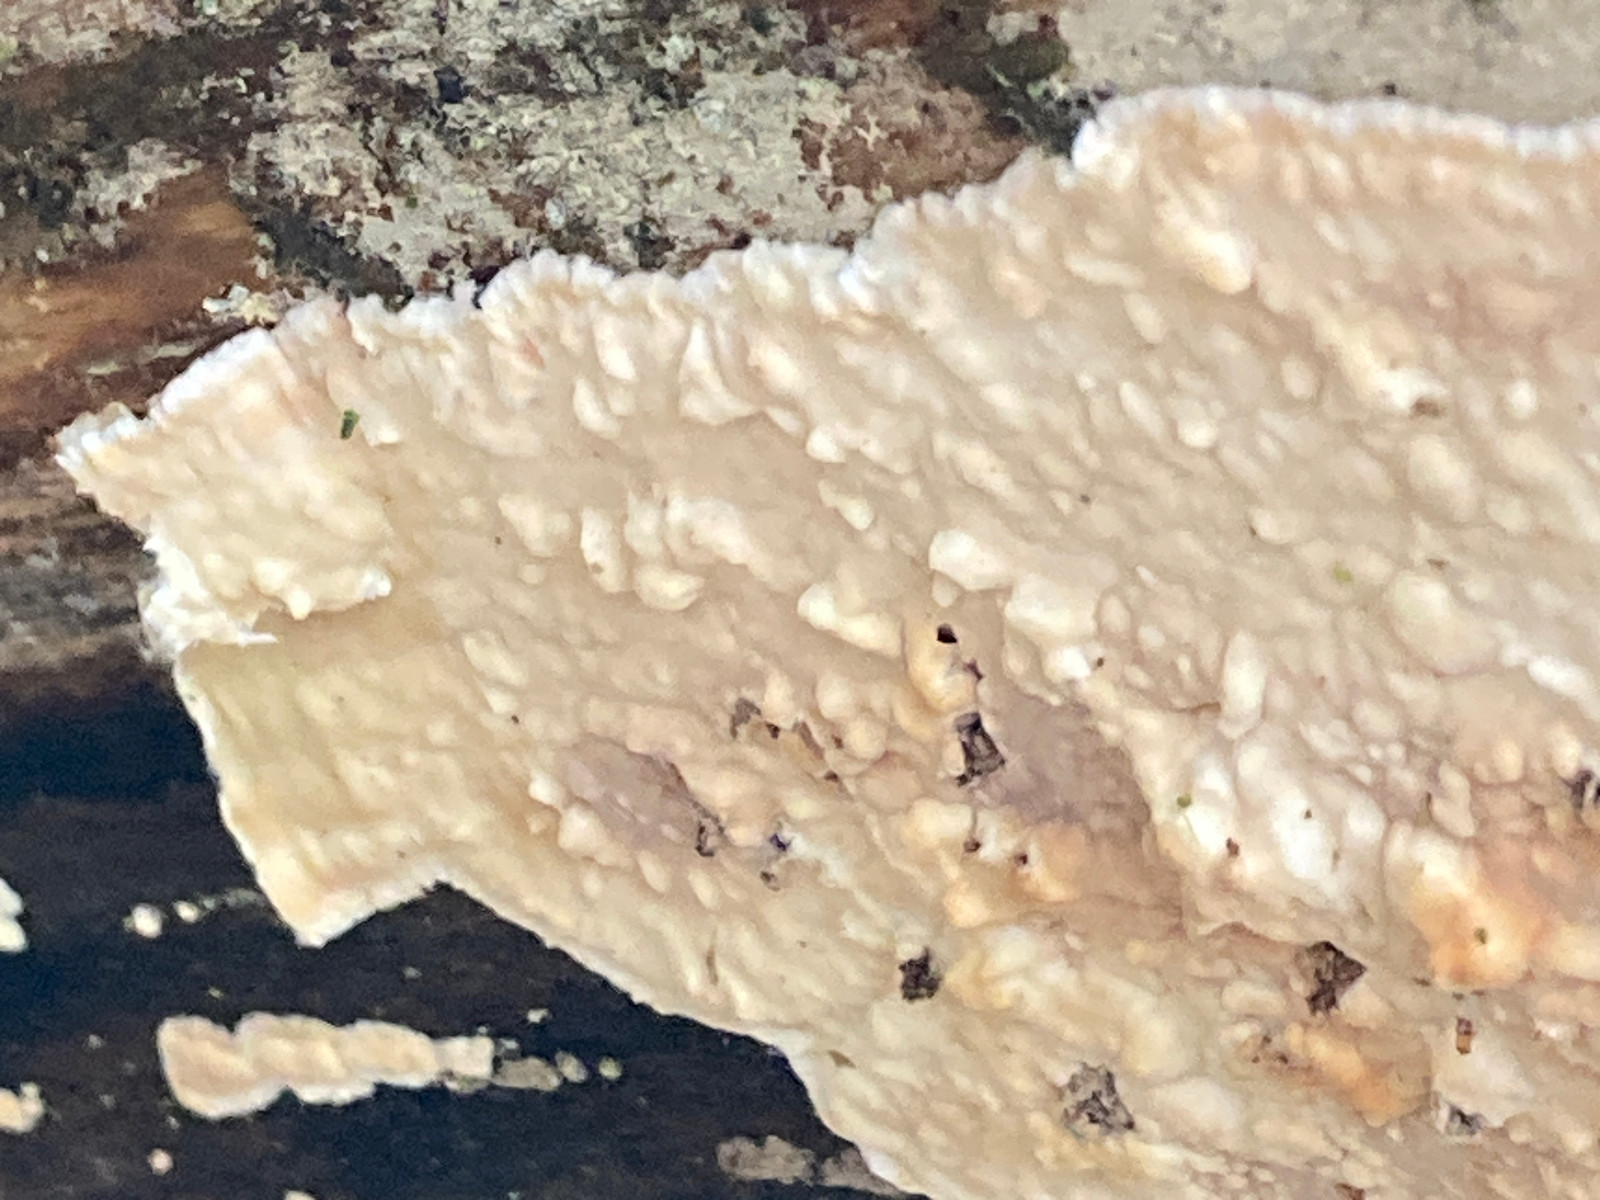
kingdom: Fungi
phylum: Basidiomycota
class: Agaricomycetes
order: Polyporales
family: Dacryobolaceae
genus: Dacryobolus
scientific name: Dacryobolus karstenii
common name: glat vulkanskorpe
